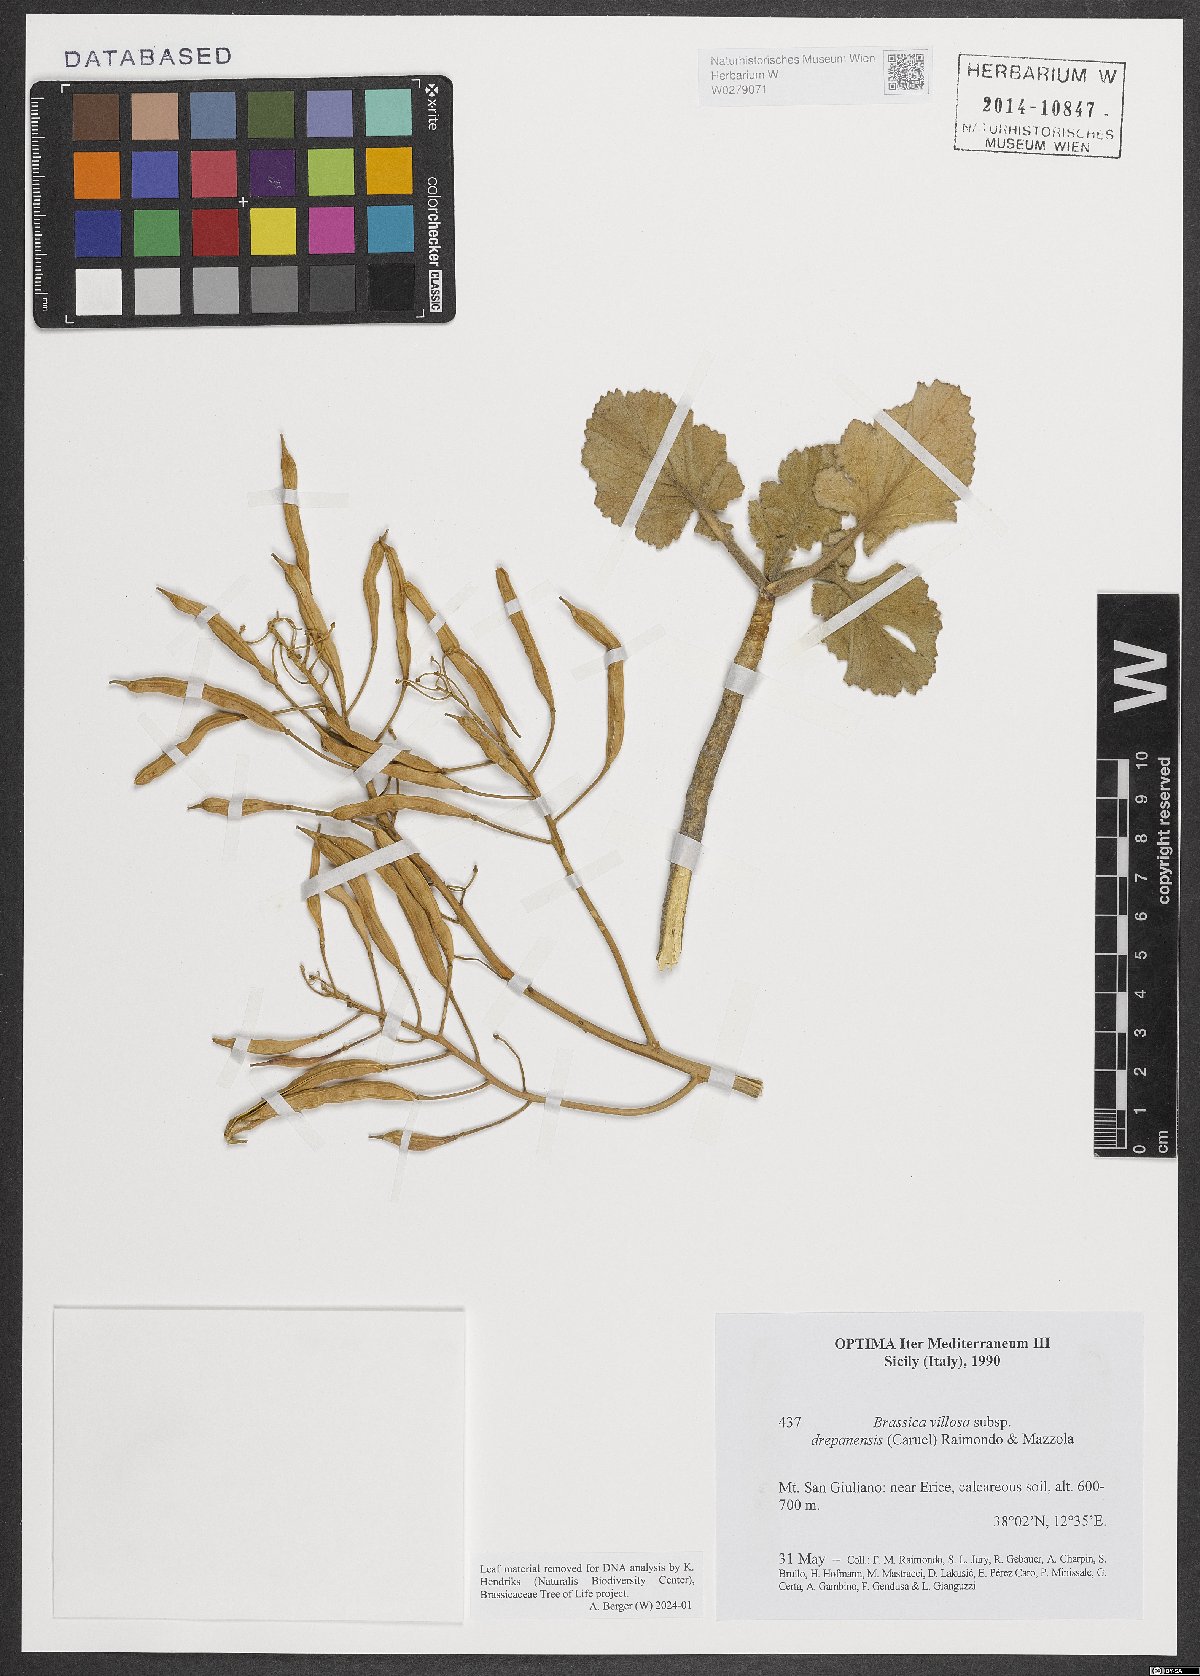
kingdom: Plantae
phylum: Tracheophyta
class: Magnoliopsida
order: Brassicales
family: Brassicaceae
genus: Brassica
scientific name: Brassica drepanensis
